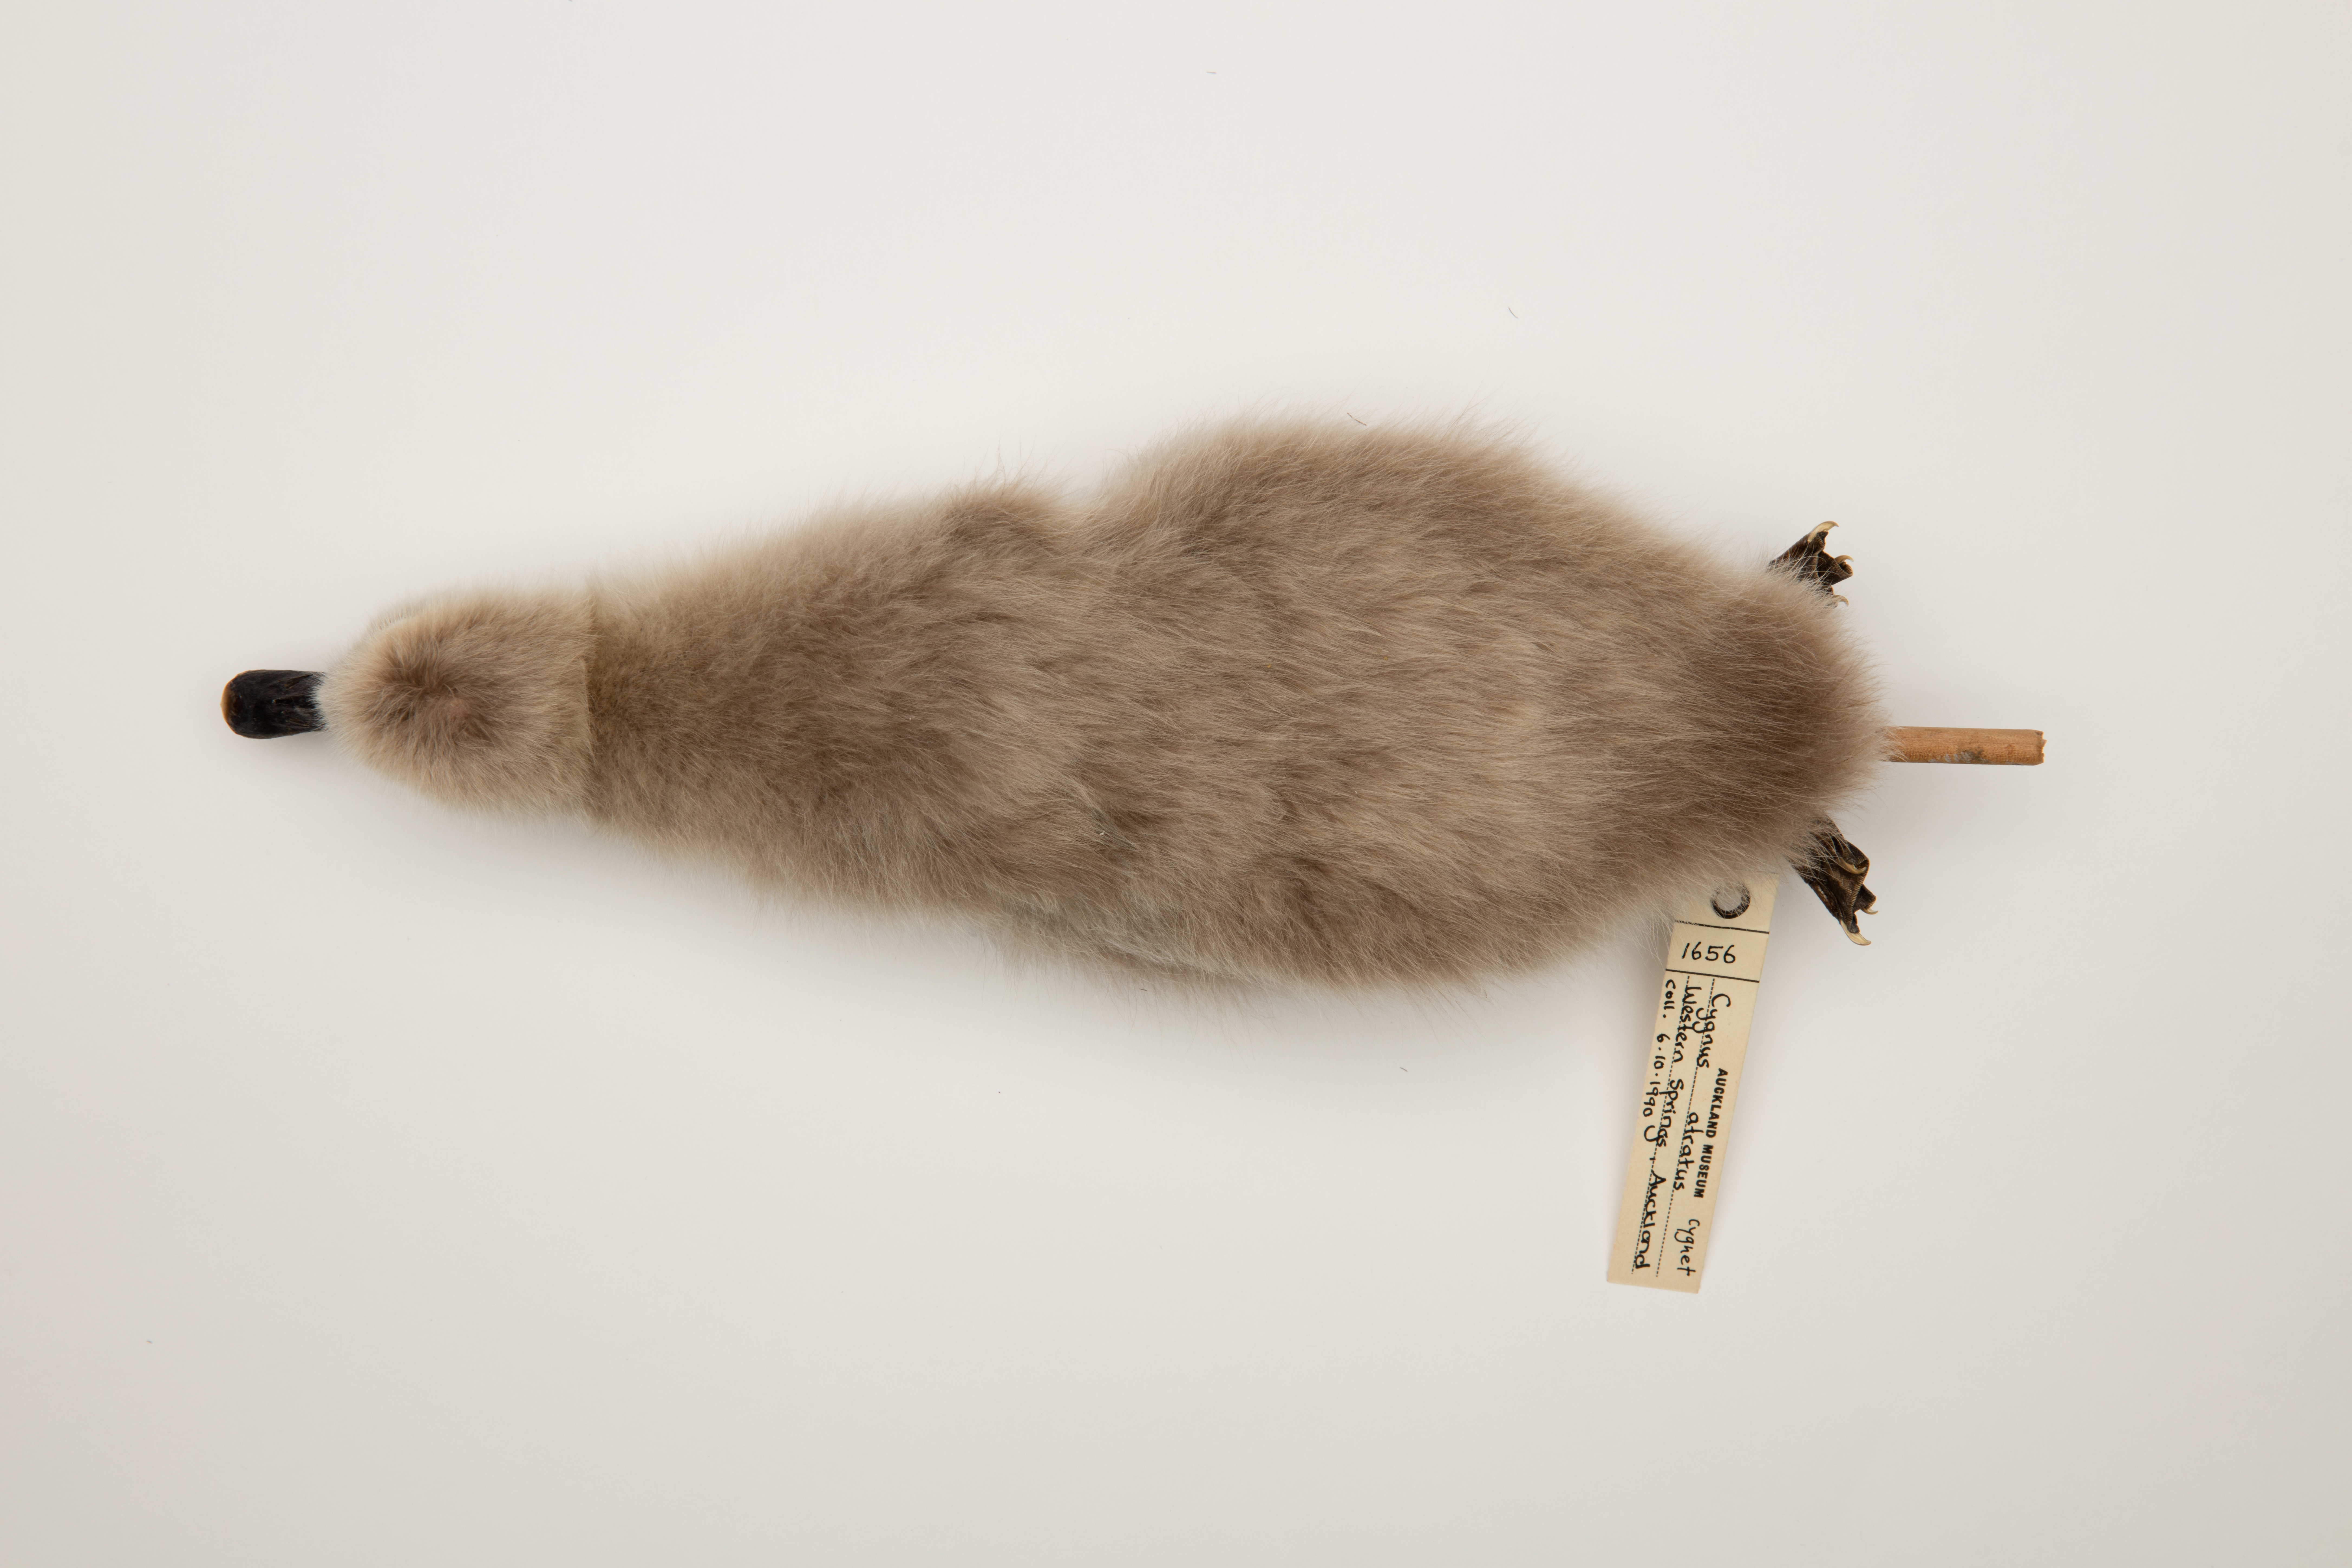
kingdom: Animalia
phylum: Chordata
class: Aves
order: Anseriformes
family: Anatidae
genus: Cygnus
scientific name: Cygnus atratus
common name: Black swan
